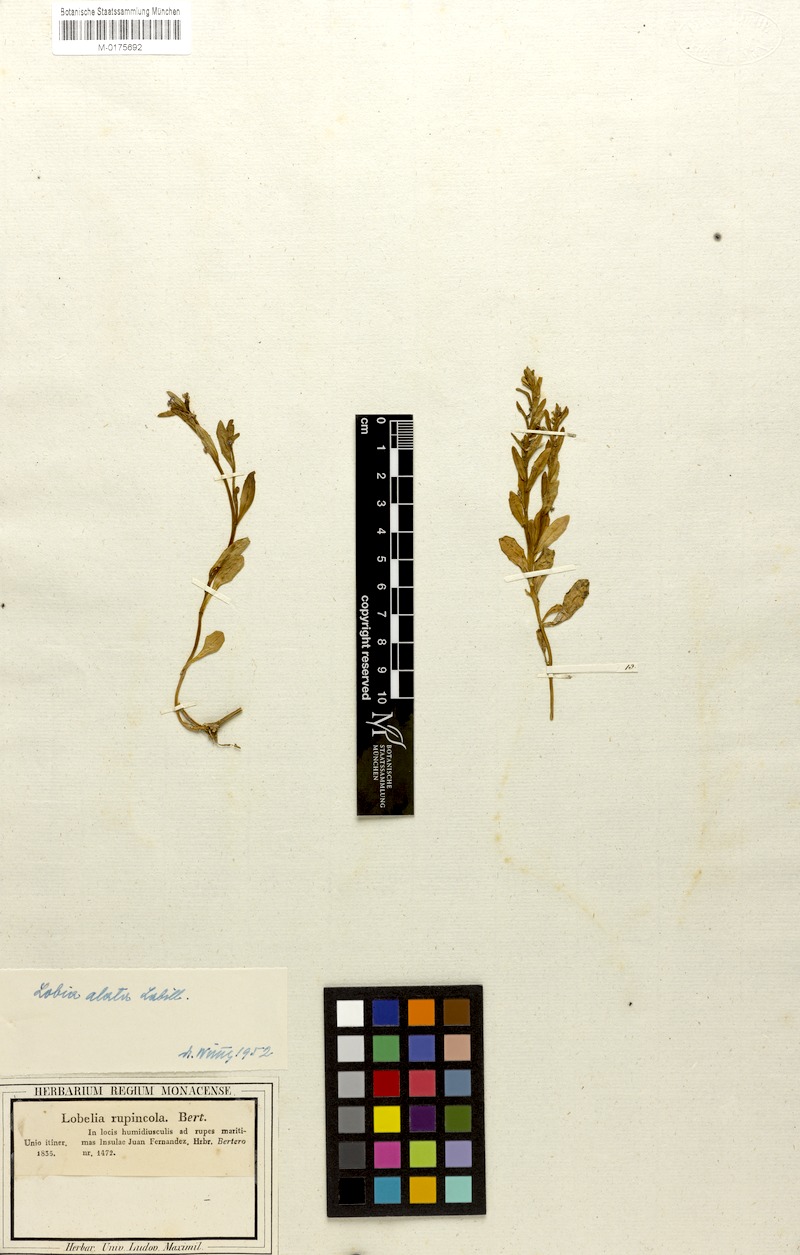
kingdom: Plantae
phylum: Tracheophyta
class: Magnoliopsida
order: Asterales
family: Campanulaceae
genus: Lobelia
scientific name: Lobelia anceps
